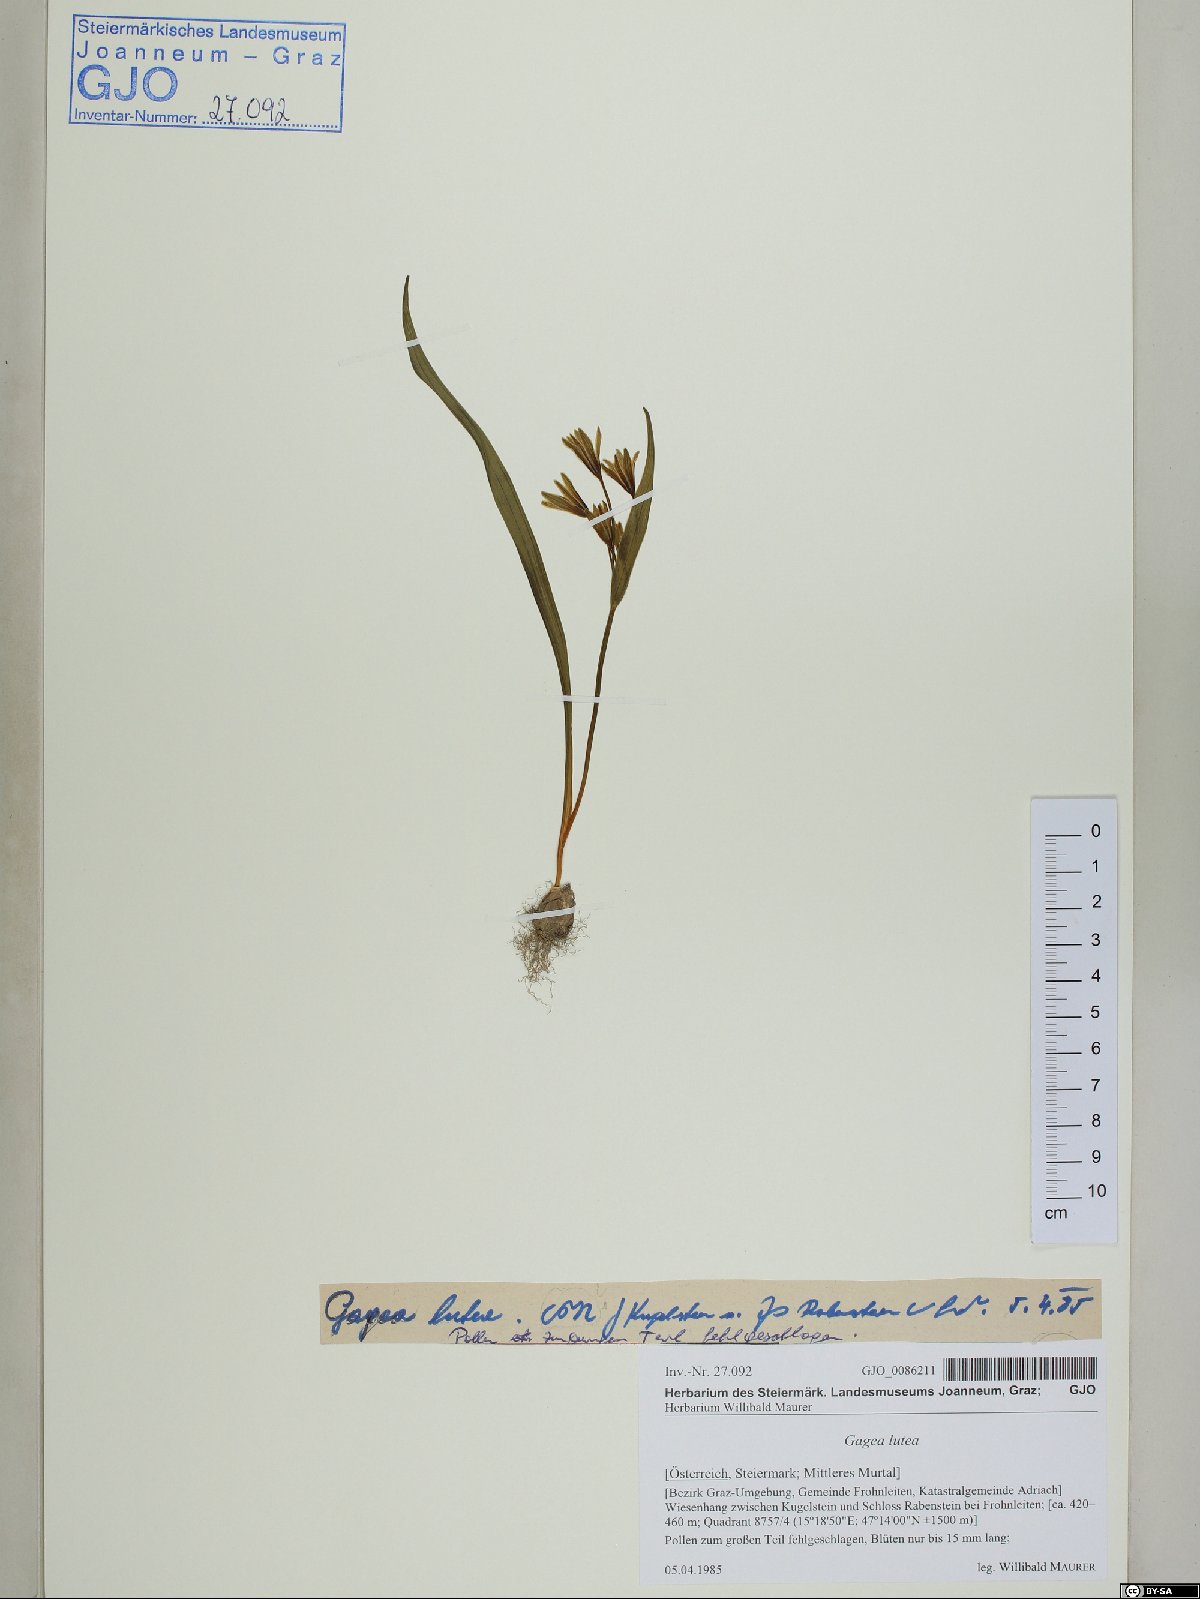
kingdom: Plantae
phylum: Tracheophyta
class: Liliopsida
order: Liliales
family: Liliaceae
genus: Gagea
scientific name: Gagea lutea
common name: Yellow star-of-bethlehem
